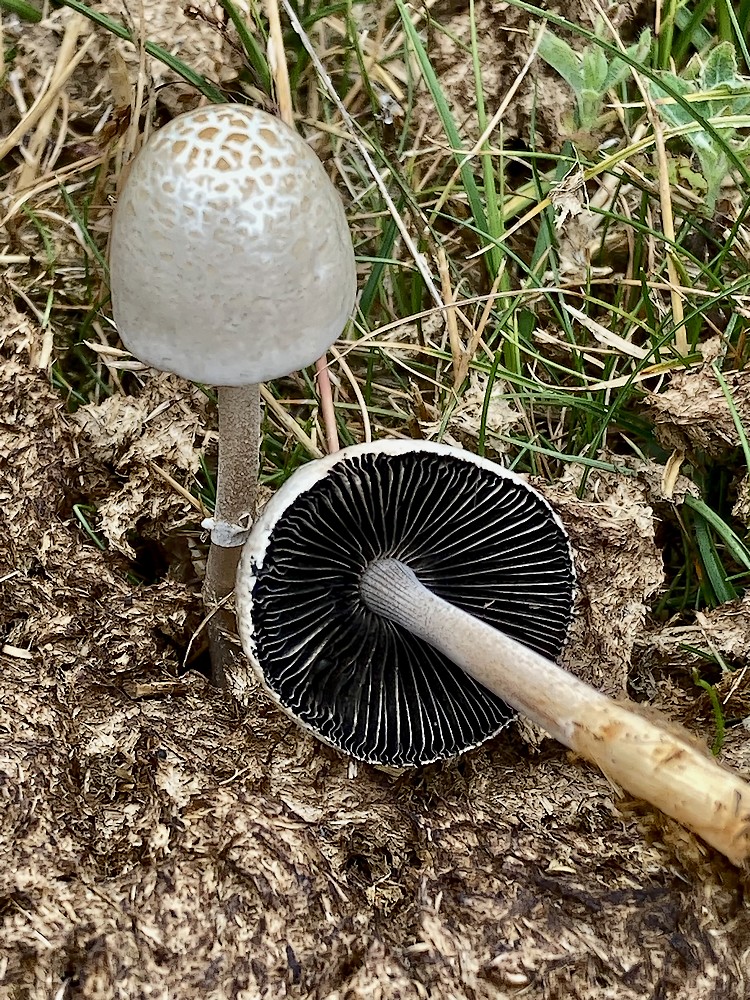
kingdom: Fungi
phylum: Basidiomycota
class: Agaricomycetes
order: Agaricales
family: Bolbitiaceae
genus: Panaeolus
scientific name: Panaeolus semiovatus
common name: ring-glanshat
